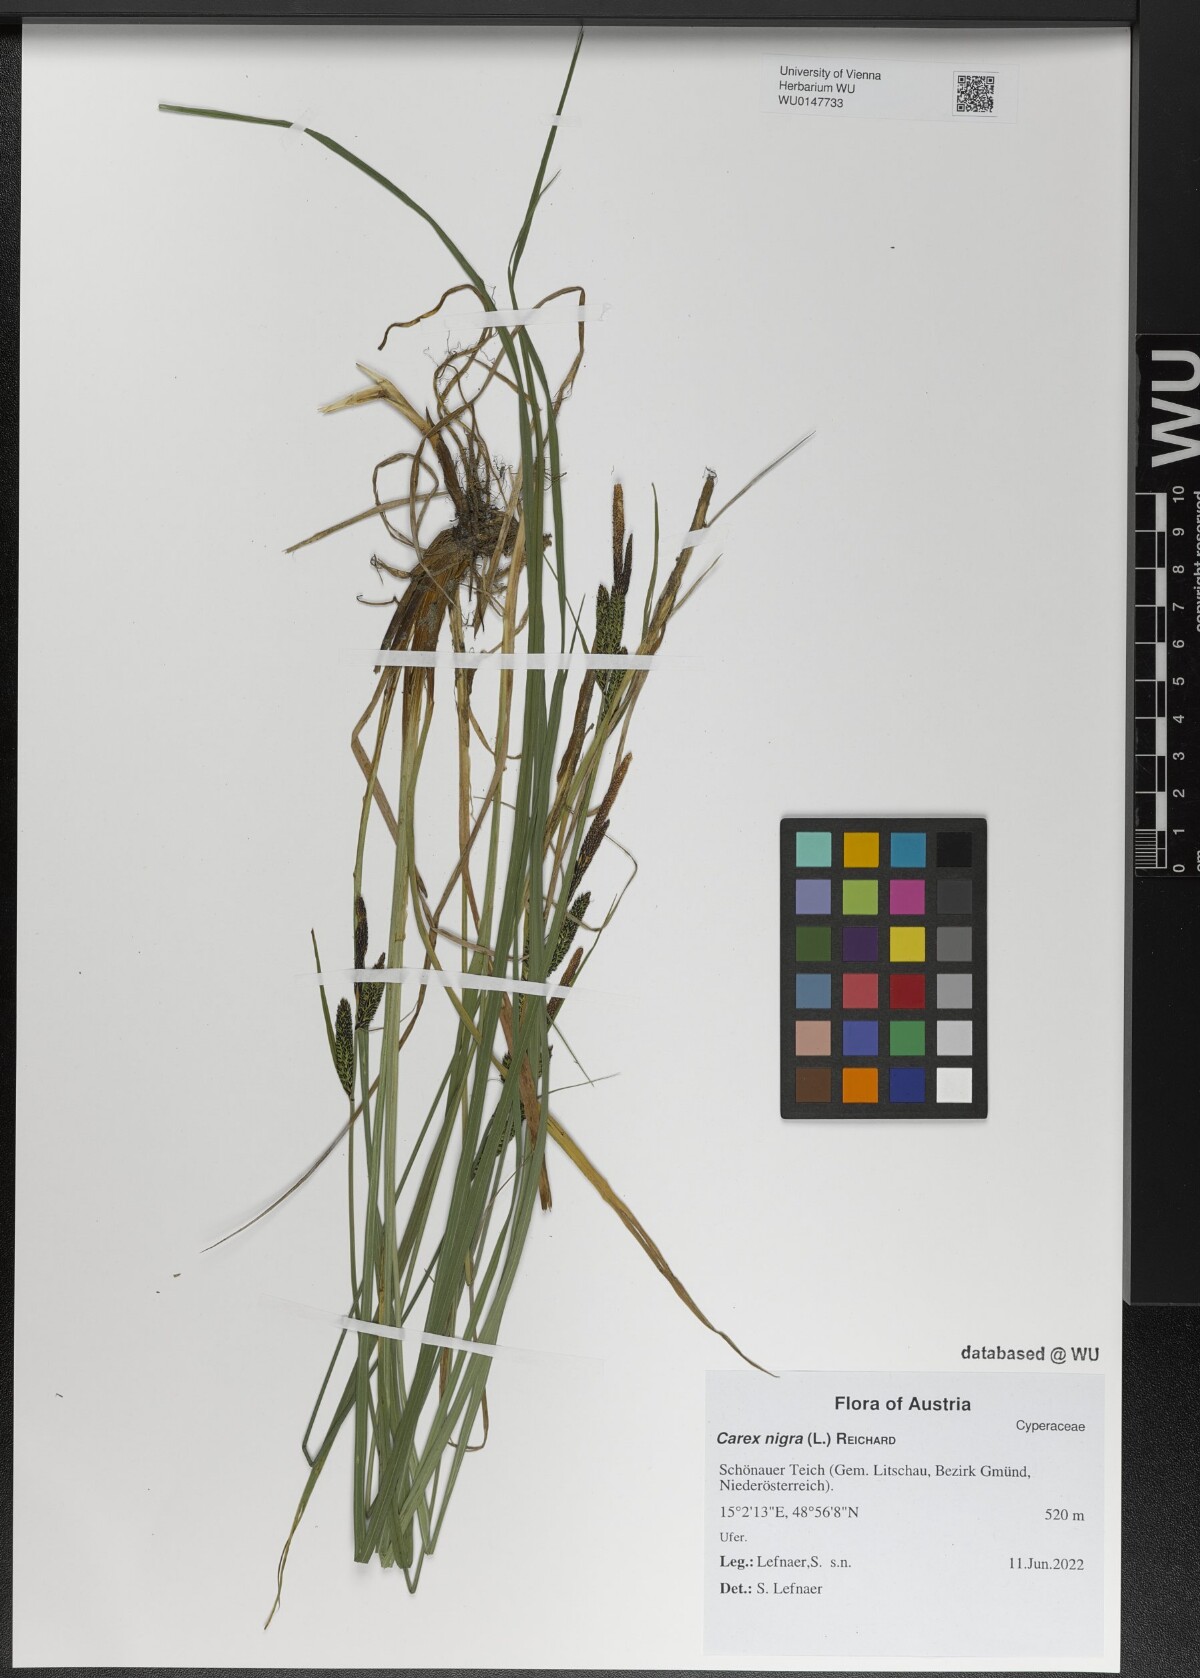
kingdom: Plantae
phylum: Tracheophyta
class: Liliopsida
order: Poales
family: Cyperaceae
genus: Carex
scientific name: Carex nigra
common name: Common sedge
